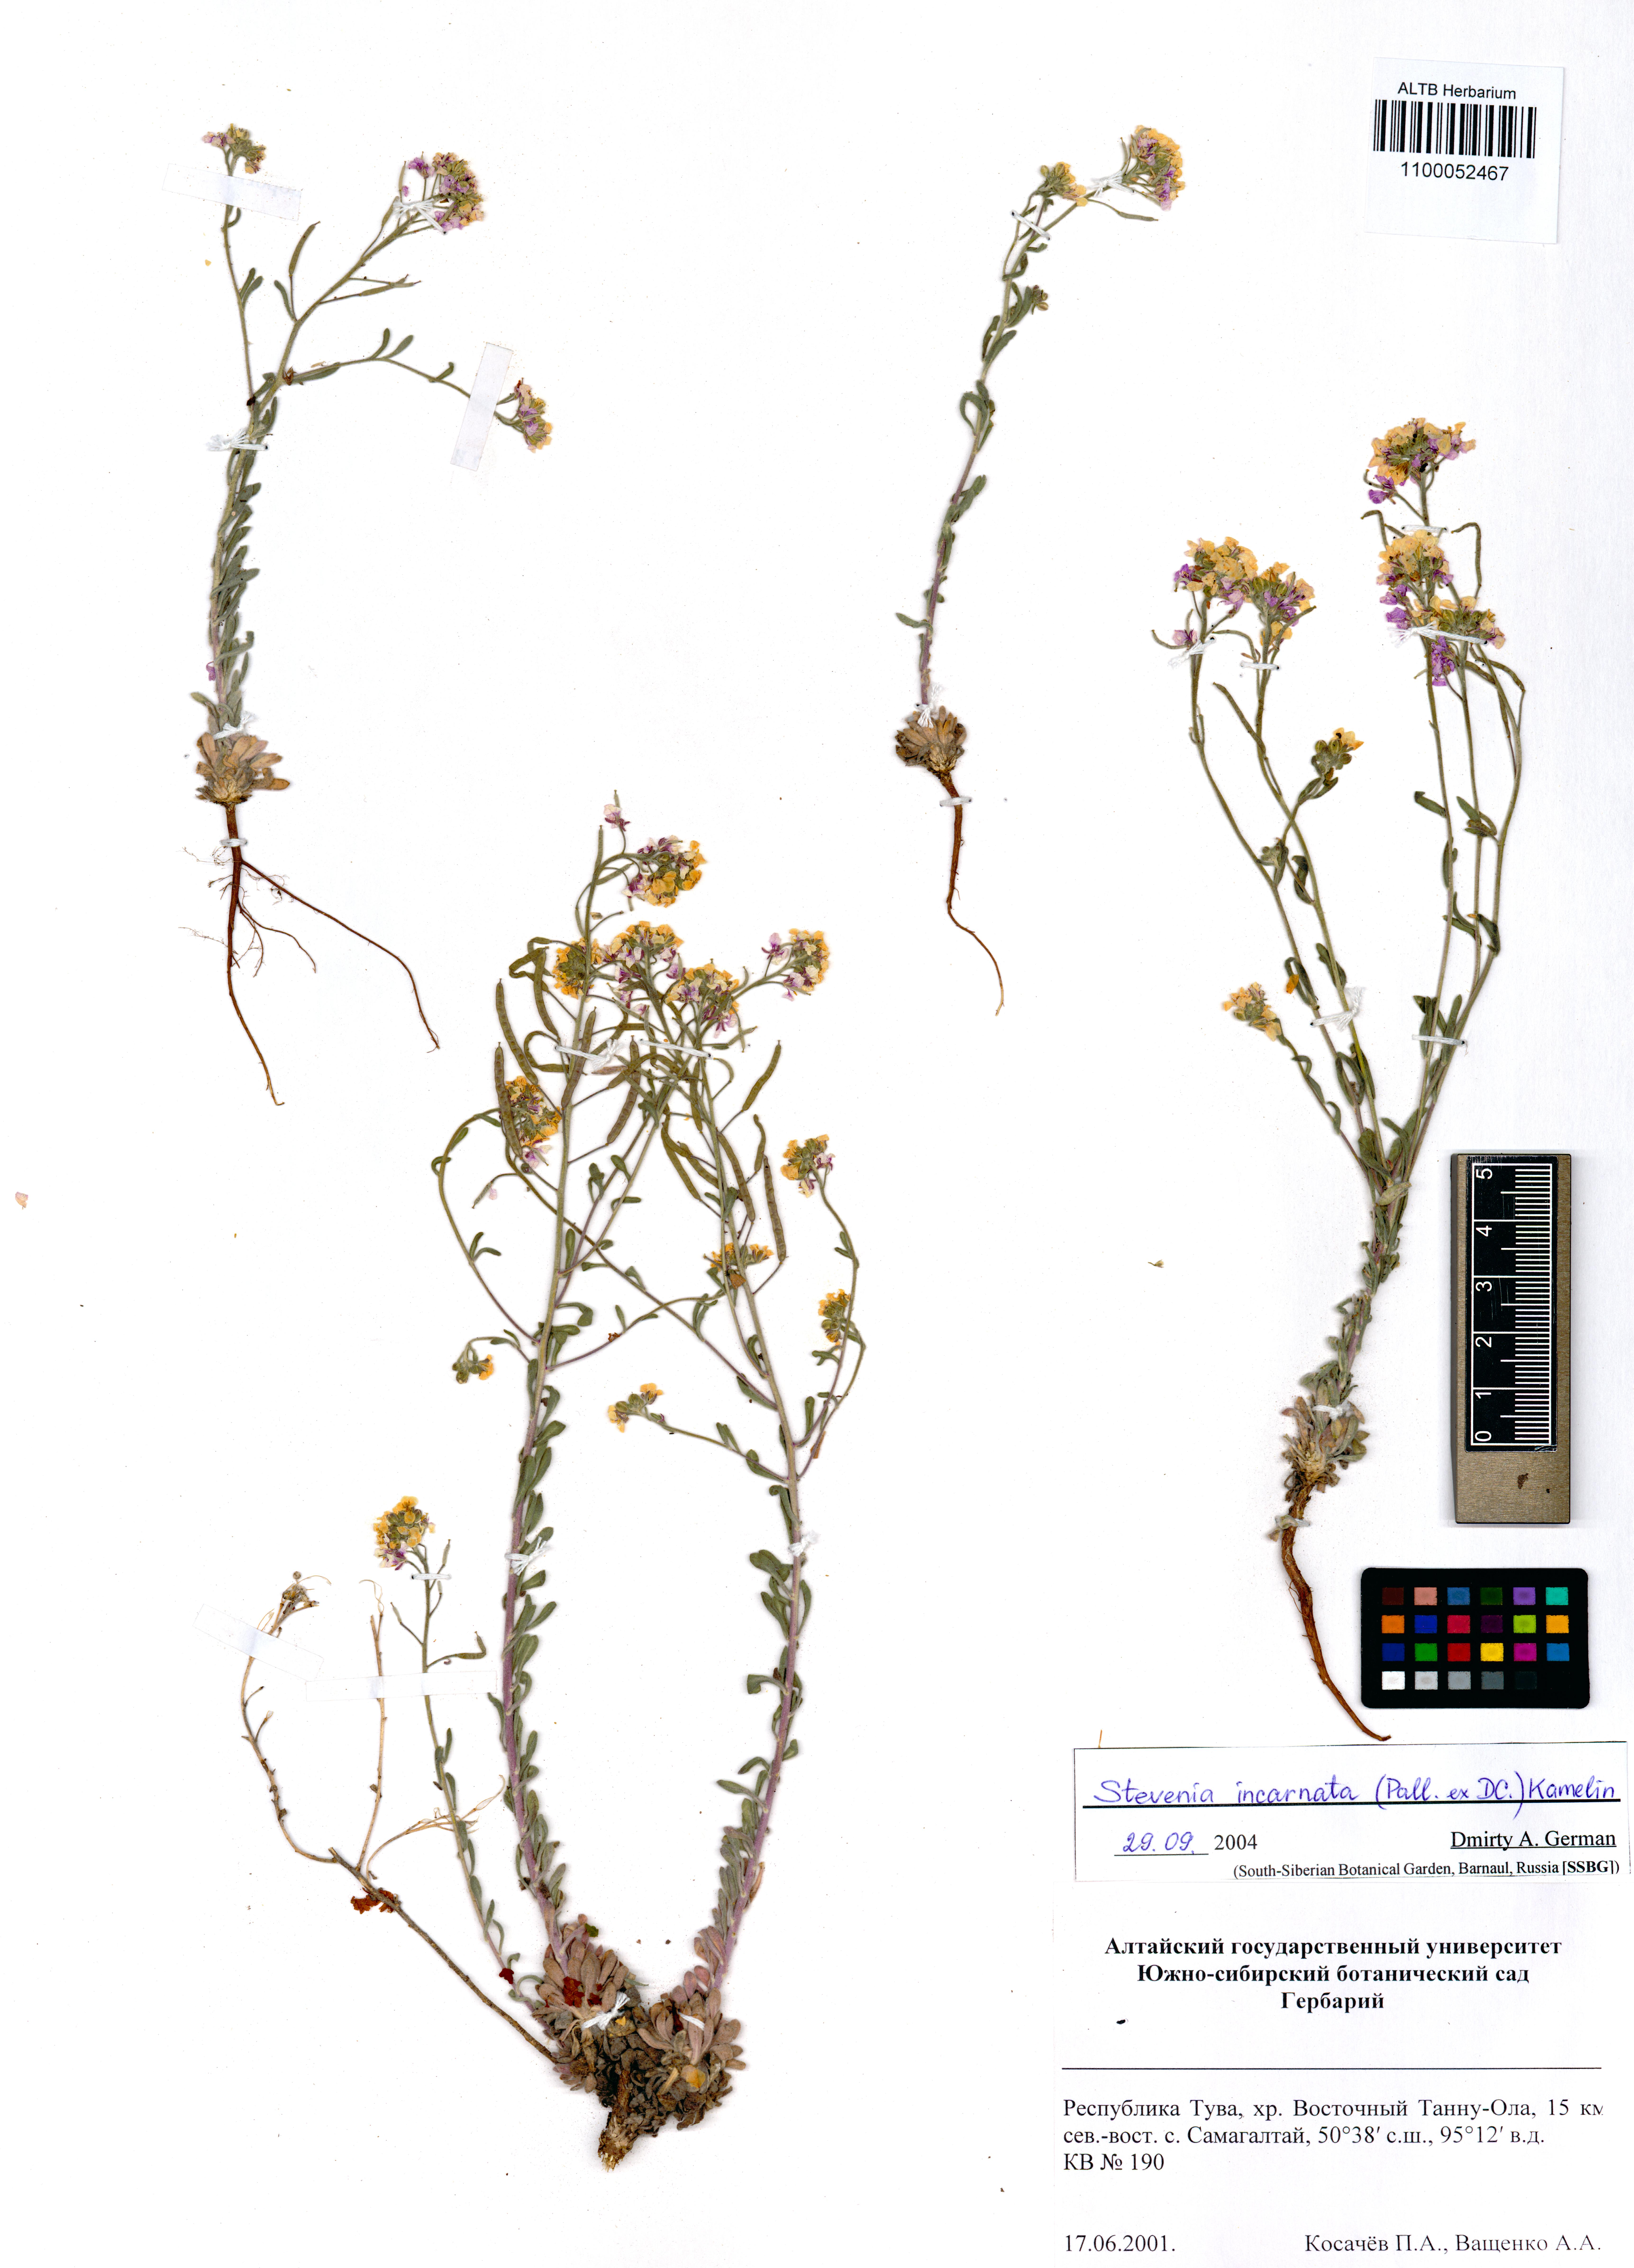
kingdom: Plantae
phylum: Tracheophyta
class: Magnoliopsida
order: Brassicales
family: Brassicaceae
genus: Stevenia
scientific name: Stevenia incarnata
